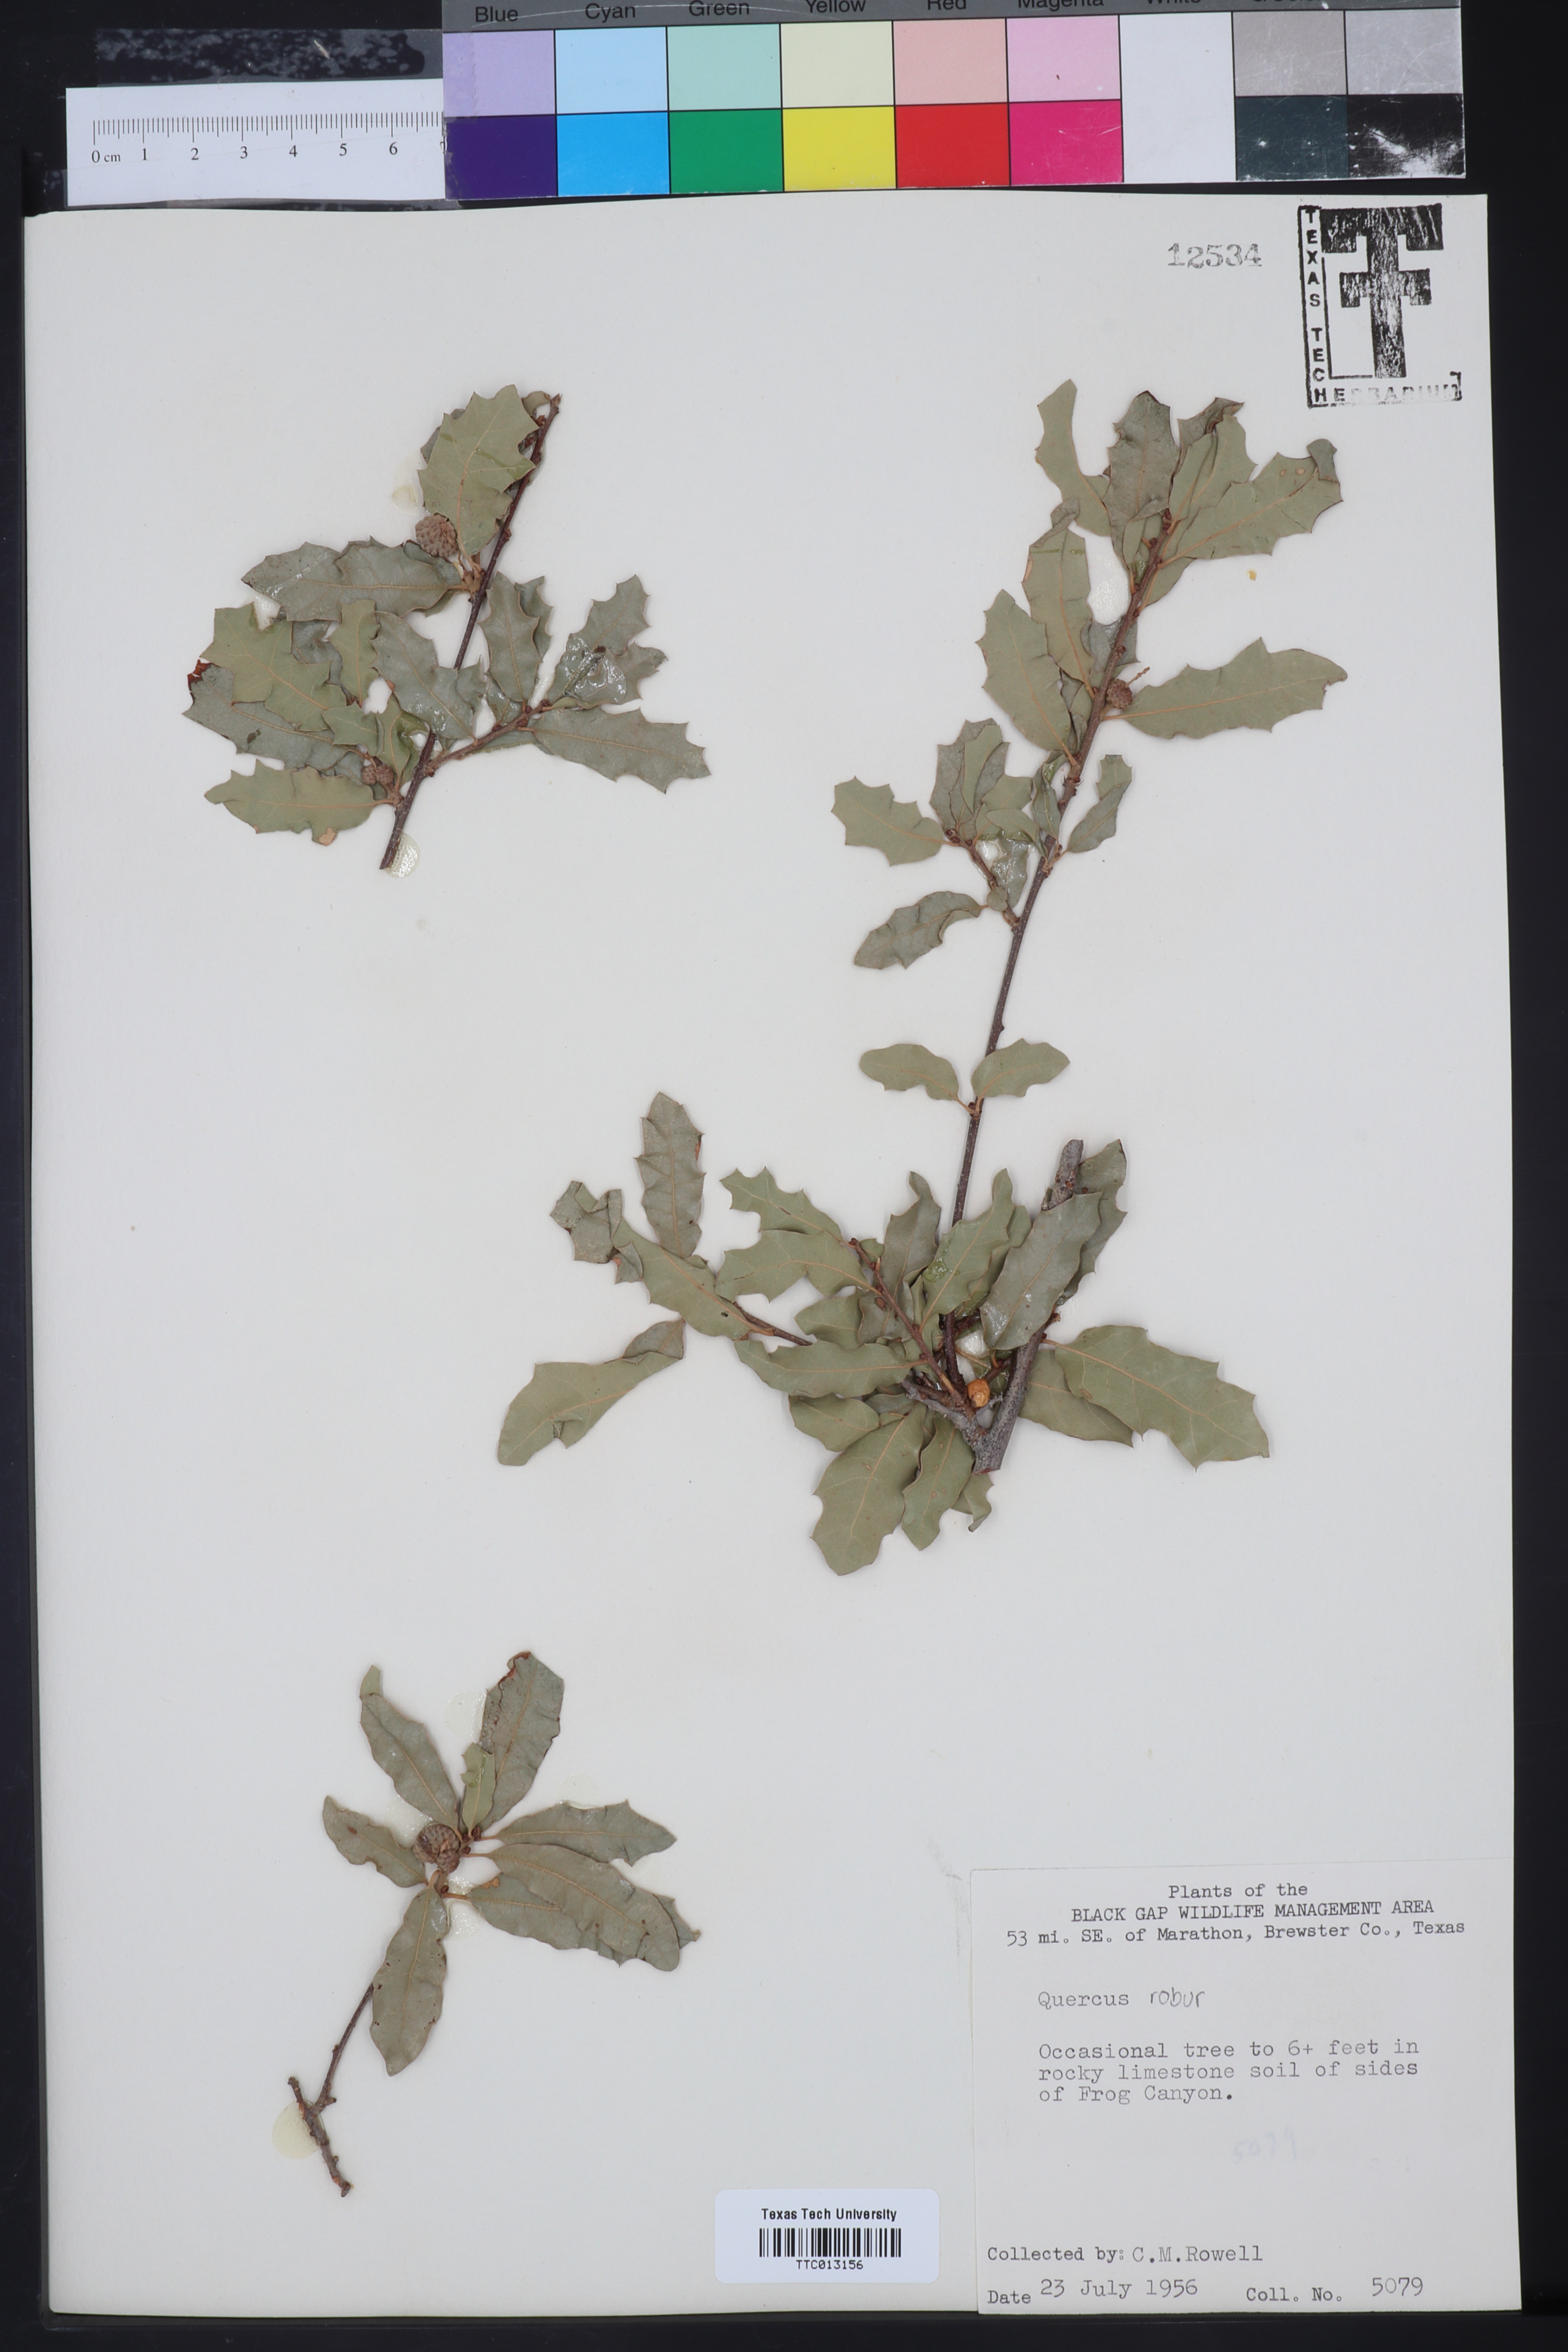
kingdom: Plantae
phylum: Tracheophyta
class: Magnoliopsida
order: Fagales
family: Fagaceae
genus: Quercus
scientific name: Quercus pungens
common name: Pungent oak
